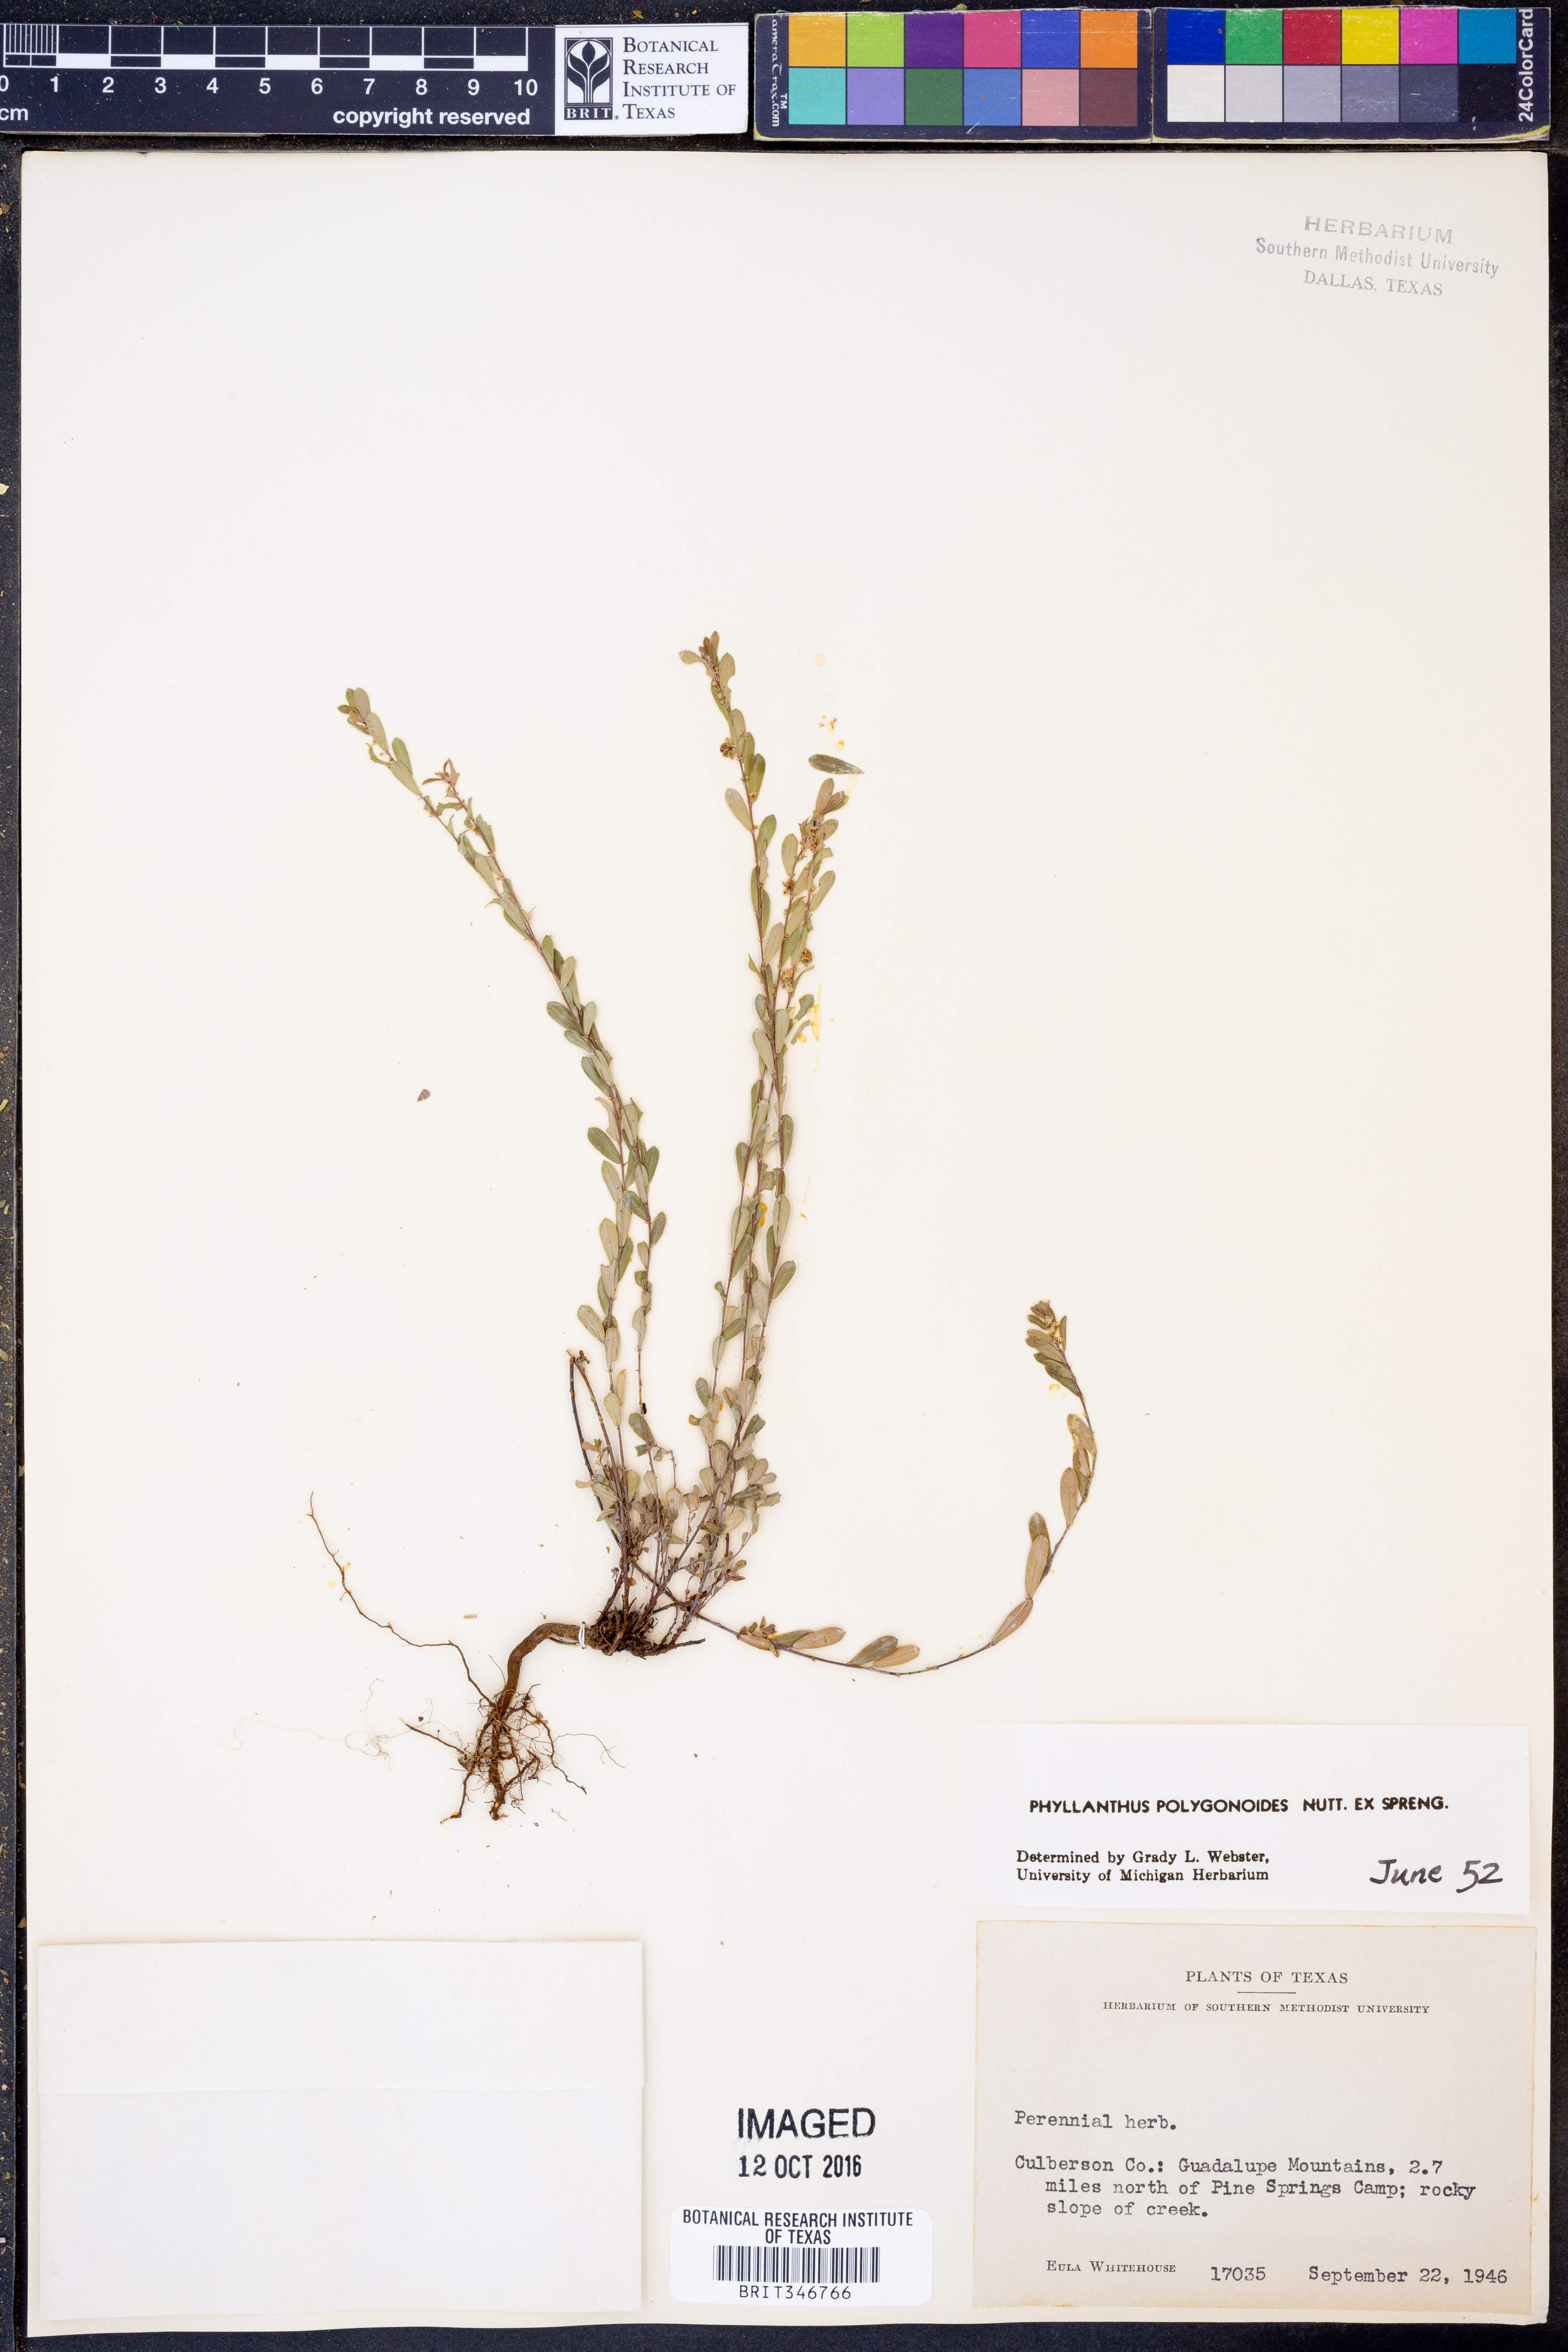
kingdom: Plantae
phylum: Tracheophyta
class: Magnoliopsida
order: Malpighiales
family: Phyllanthaceae
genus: Phyllanthus
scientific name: Phyllanthus polygonoides
